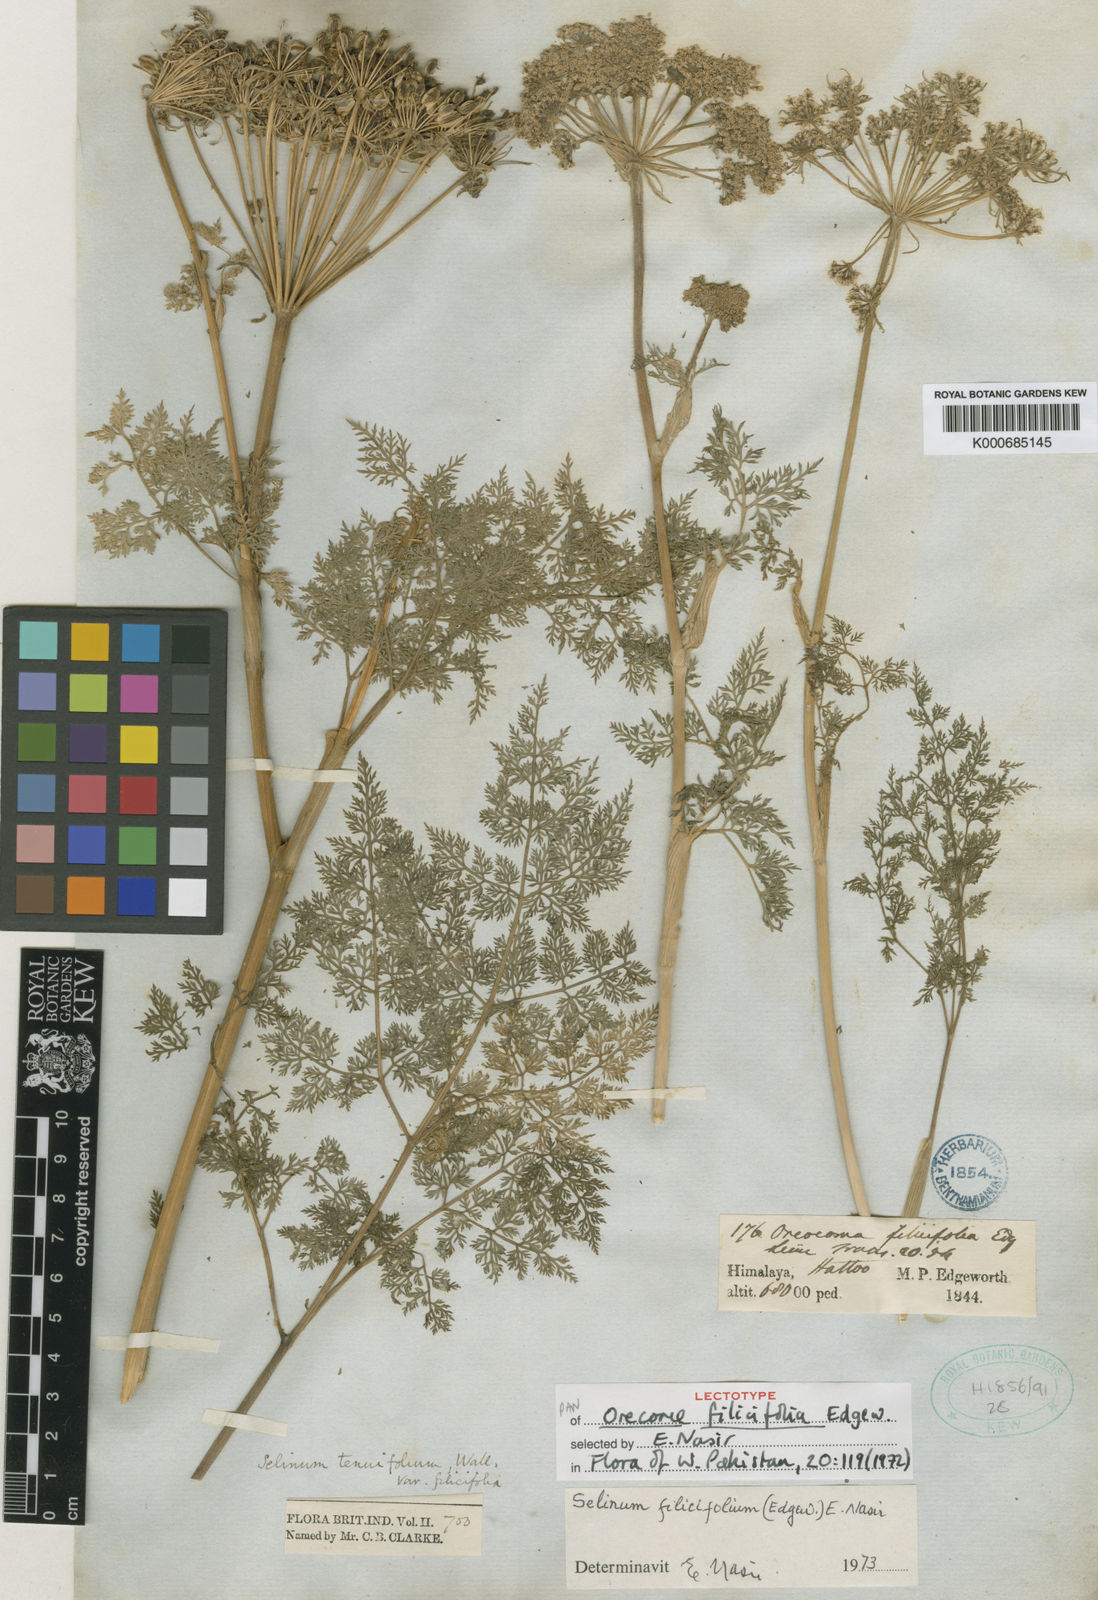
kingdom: Plantae
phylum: Tracheophyta
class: Magnoliopsida
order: Apiales
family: Apiaceae
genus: Selinum
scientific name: Selinum filicifolium
